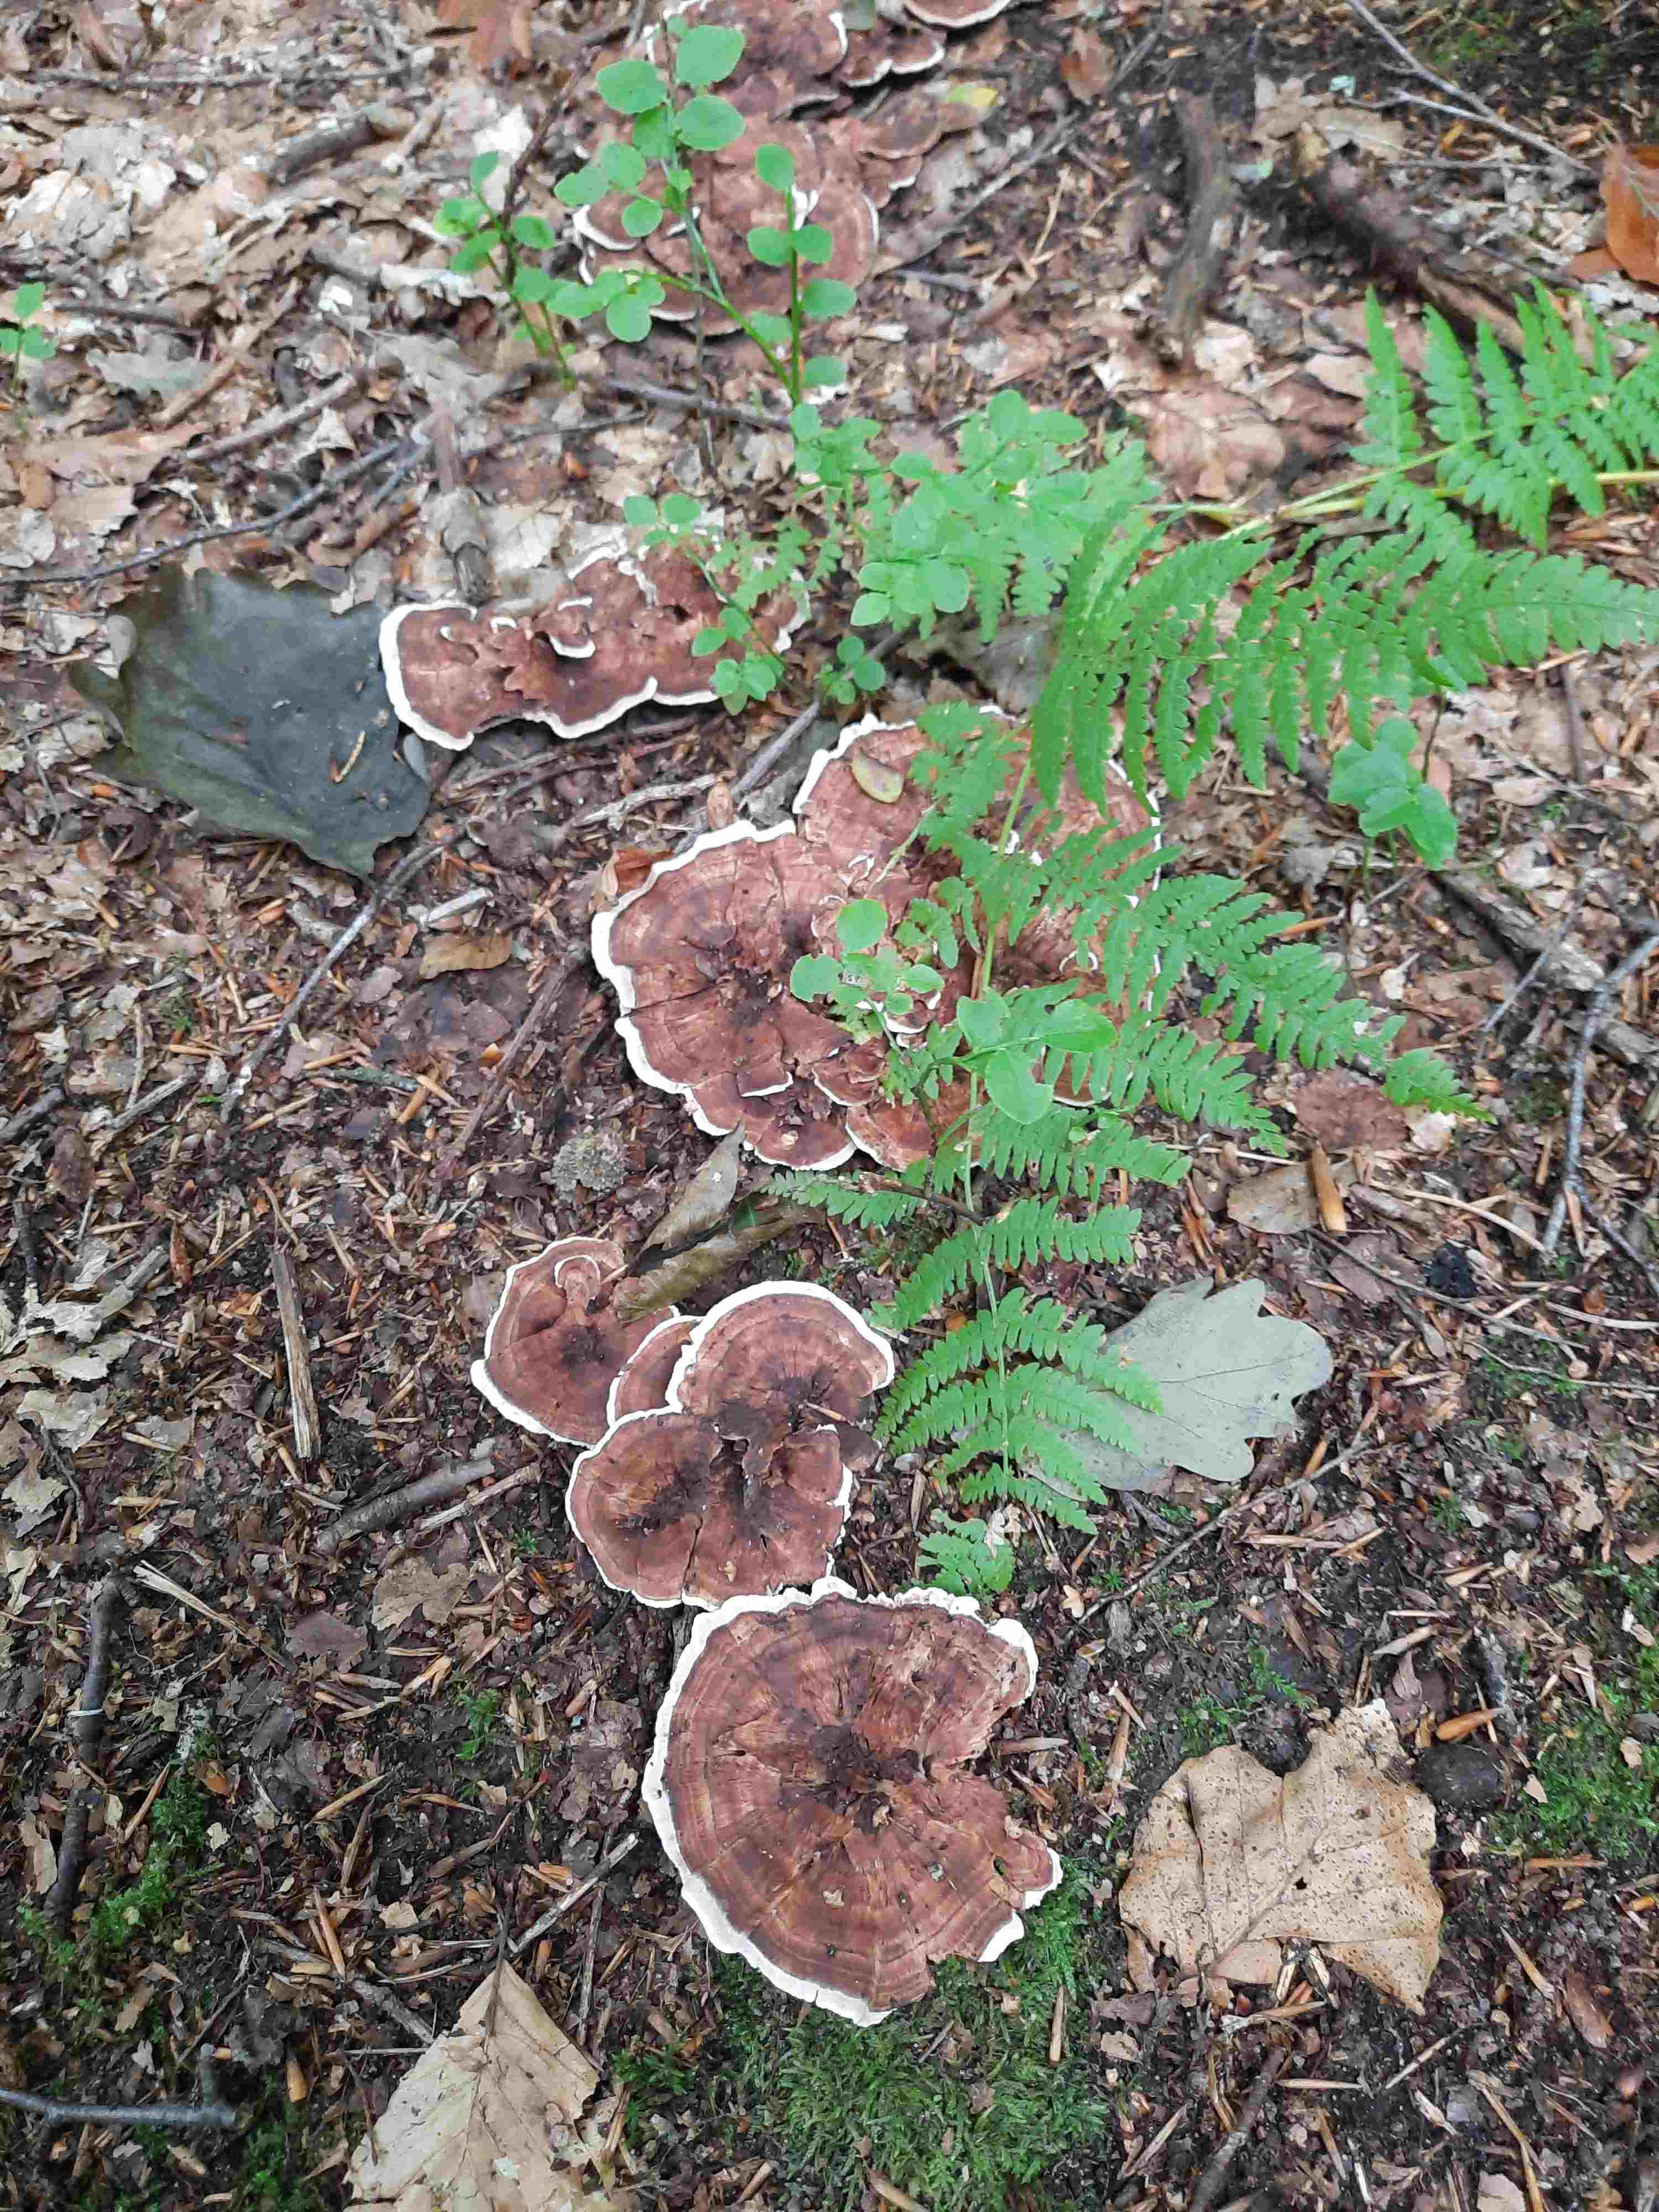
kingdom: Fungi
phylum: Basidiomycota
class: Agaricomycetes
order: Thelephorales
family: Bankeraceae
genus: Hydnellum
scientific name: Hydnellum concrescens
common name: bæltet korkpigsvamp
